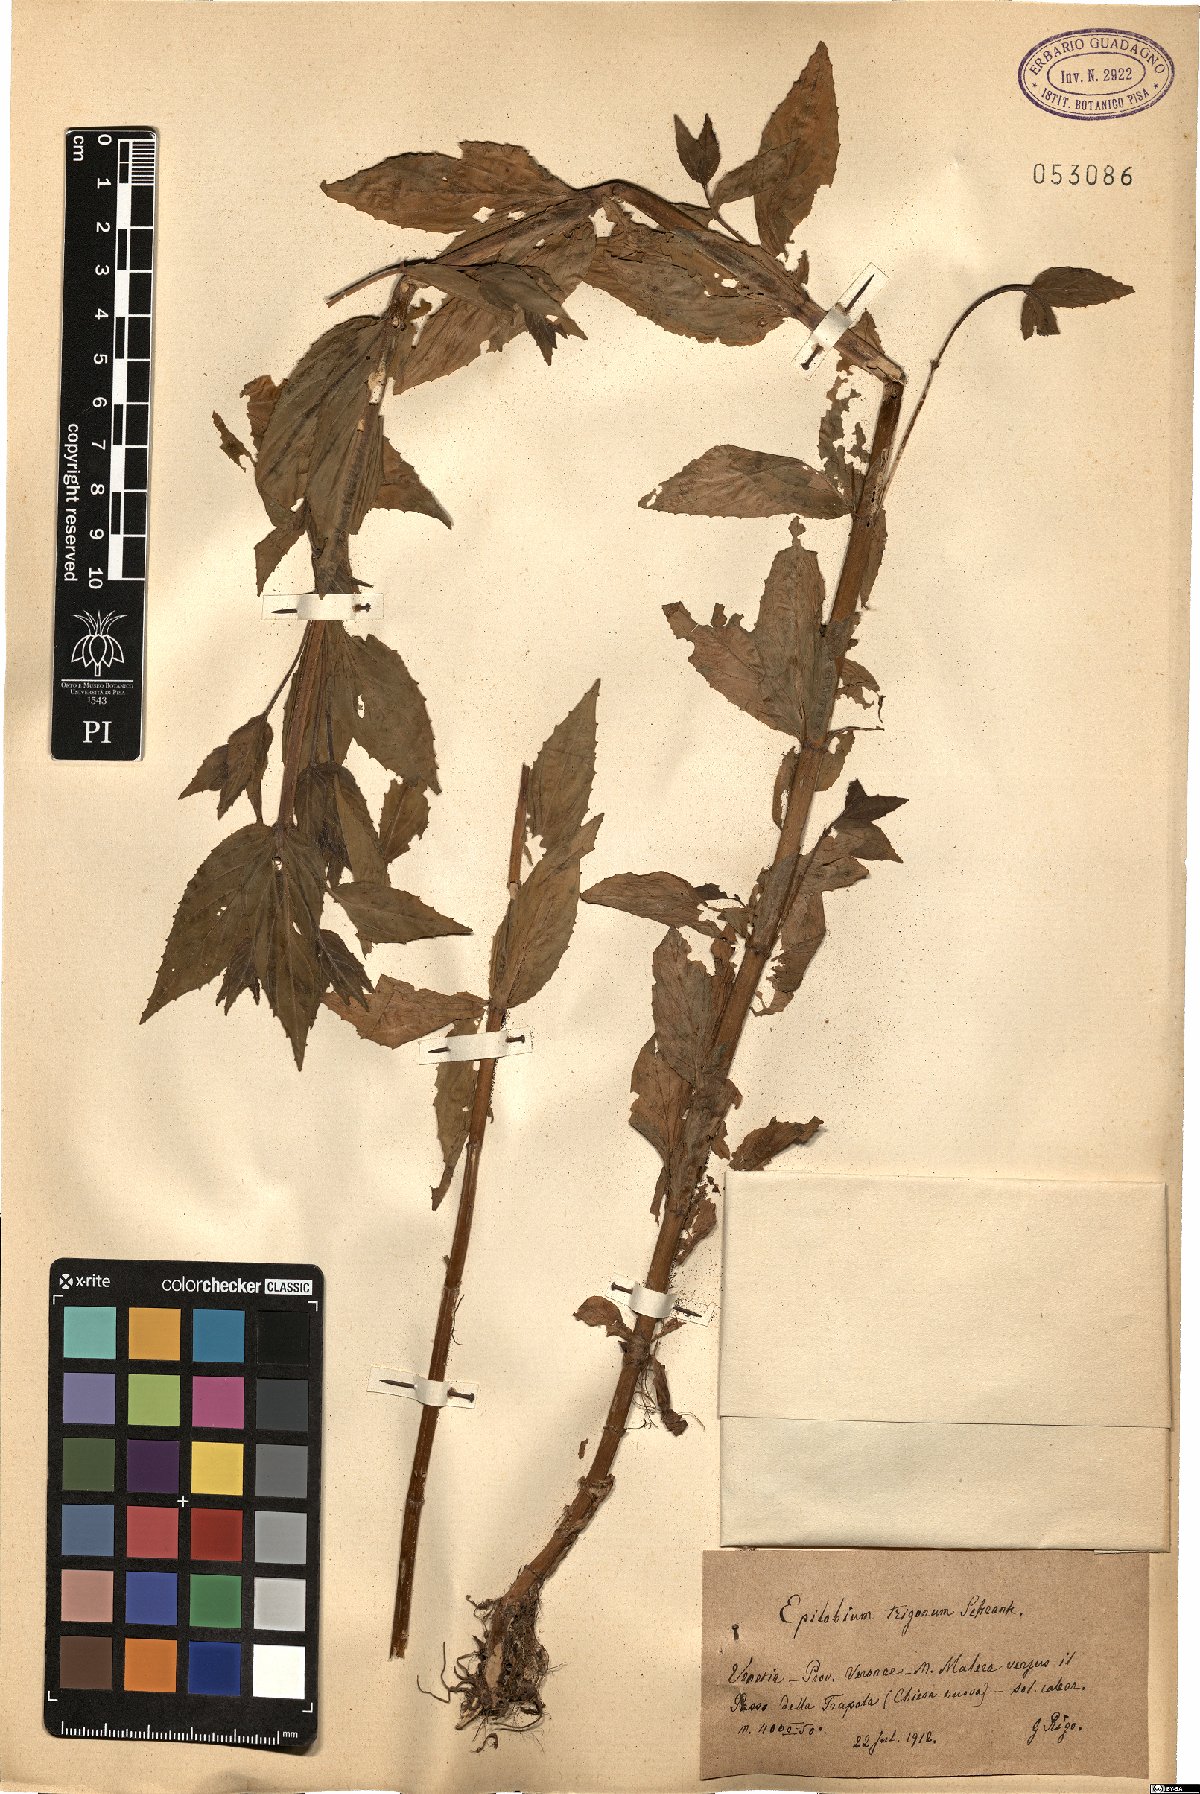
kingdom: Plantae
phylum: Tracheophyta
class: Magnoliopsida
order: Myrtales
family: Onagraceae
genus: Epilobium
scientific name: Epilobium roseum
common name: Pale willowherb
